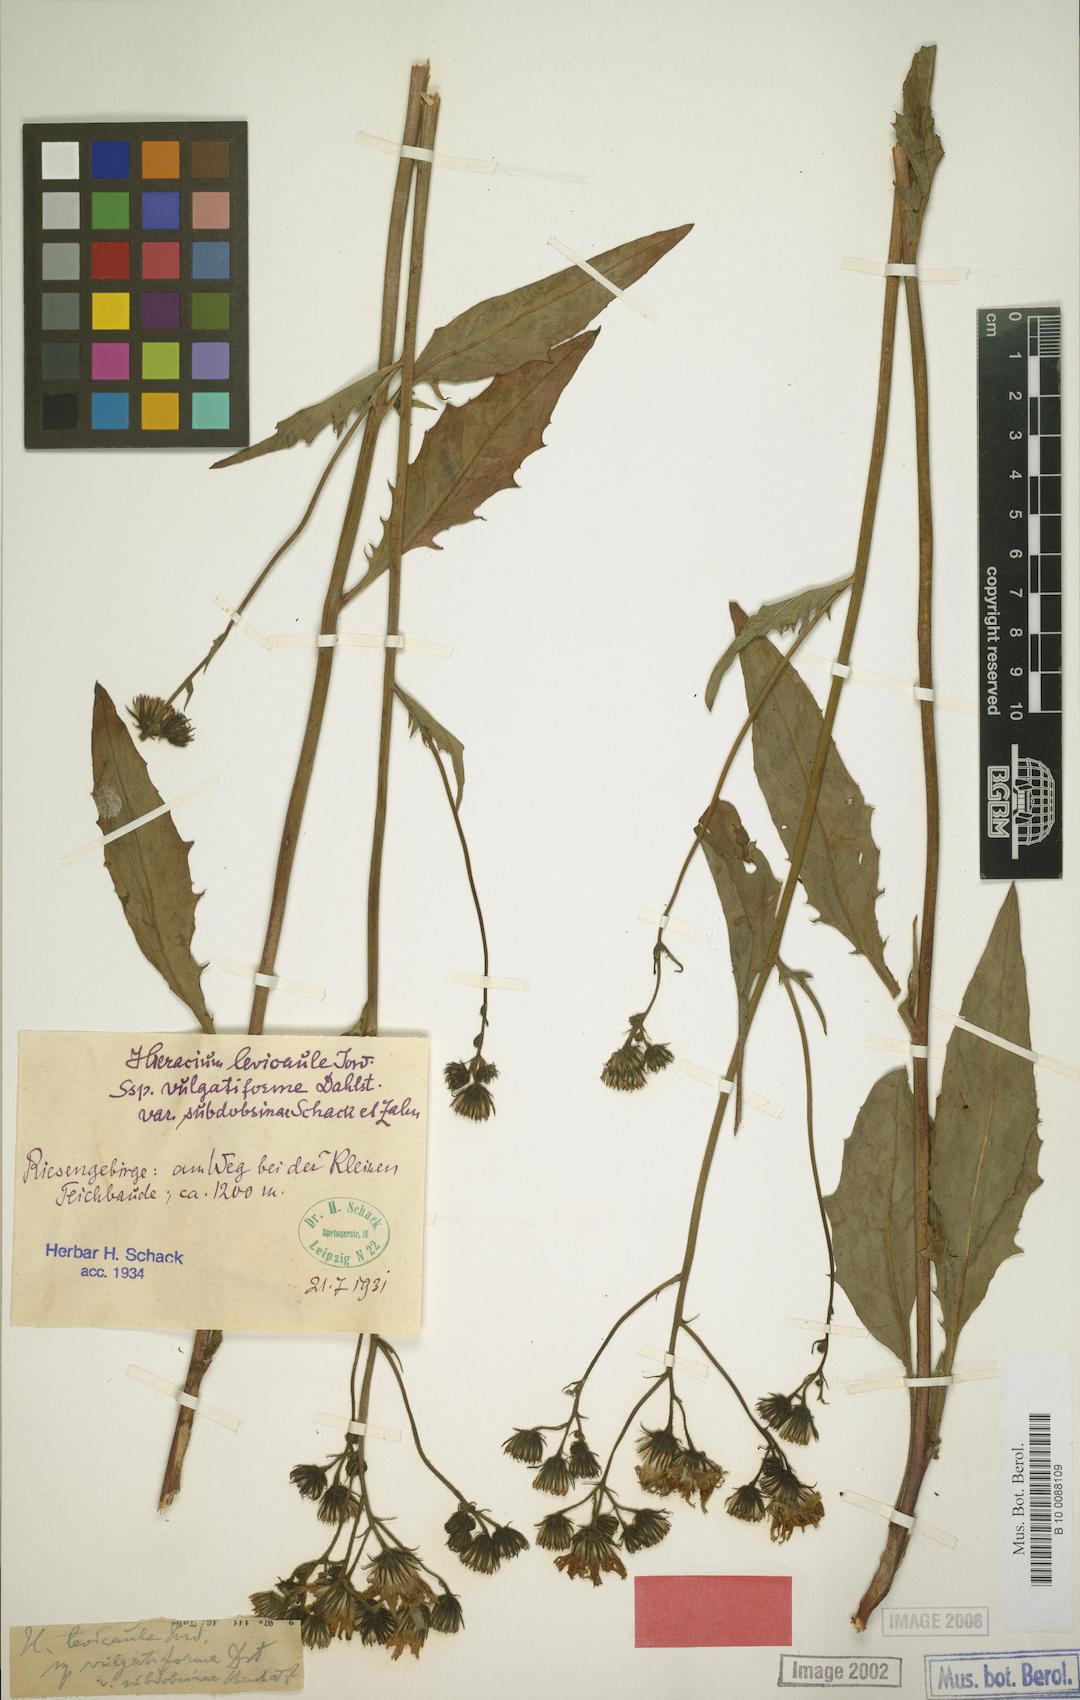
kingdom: Plantae
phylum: Tracheophyta
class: Magnoliopsida
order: Asterales
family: Asteraceae
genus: Hieracium
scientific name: Hieracium levicaule
